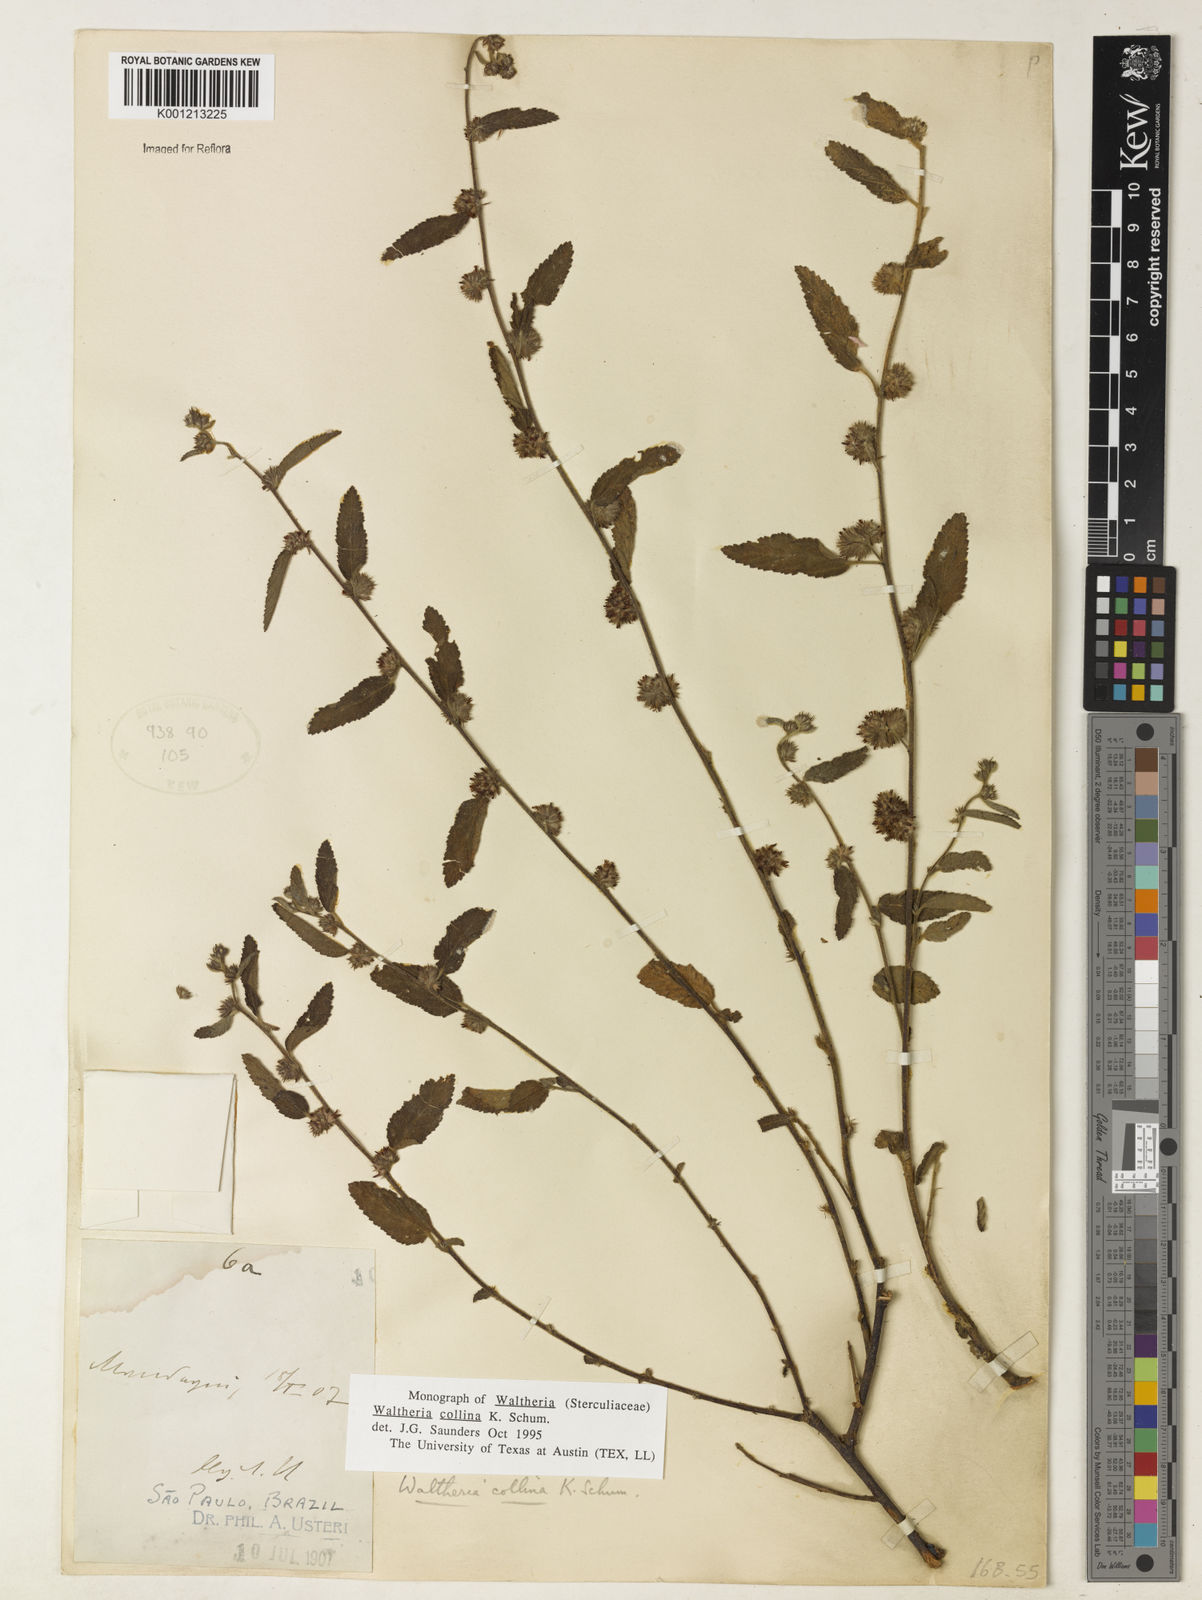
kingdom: Plantae
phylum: Tracheophyta
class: Magnoliopsida
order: Malvales
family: Malvaceae
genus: Waltheria
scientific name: Waltheria collina
